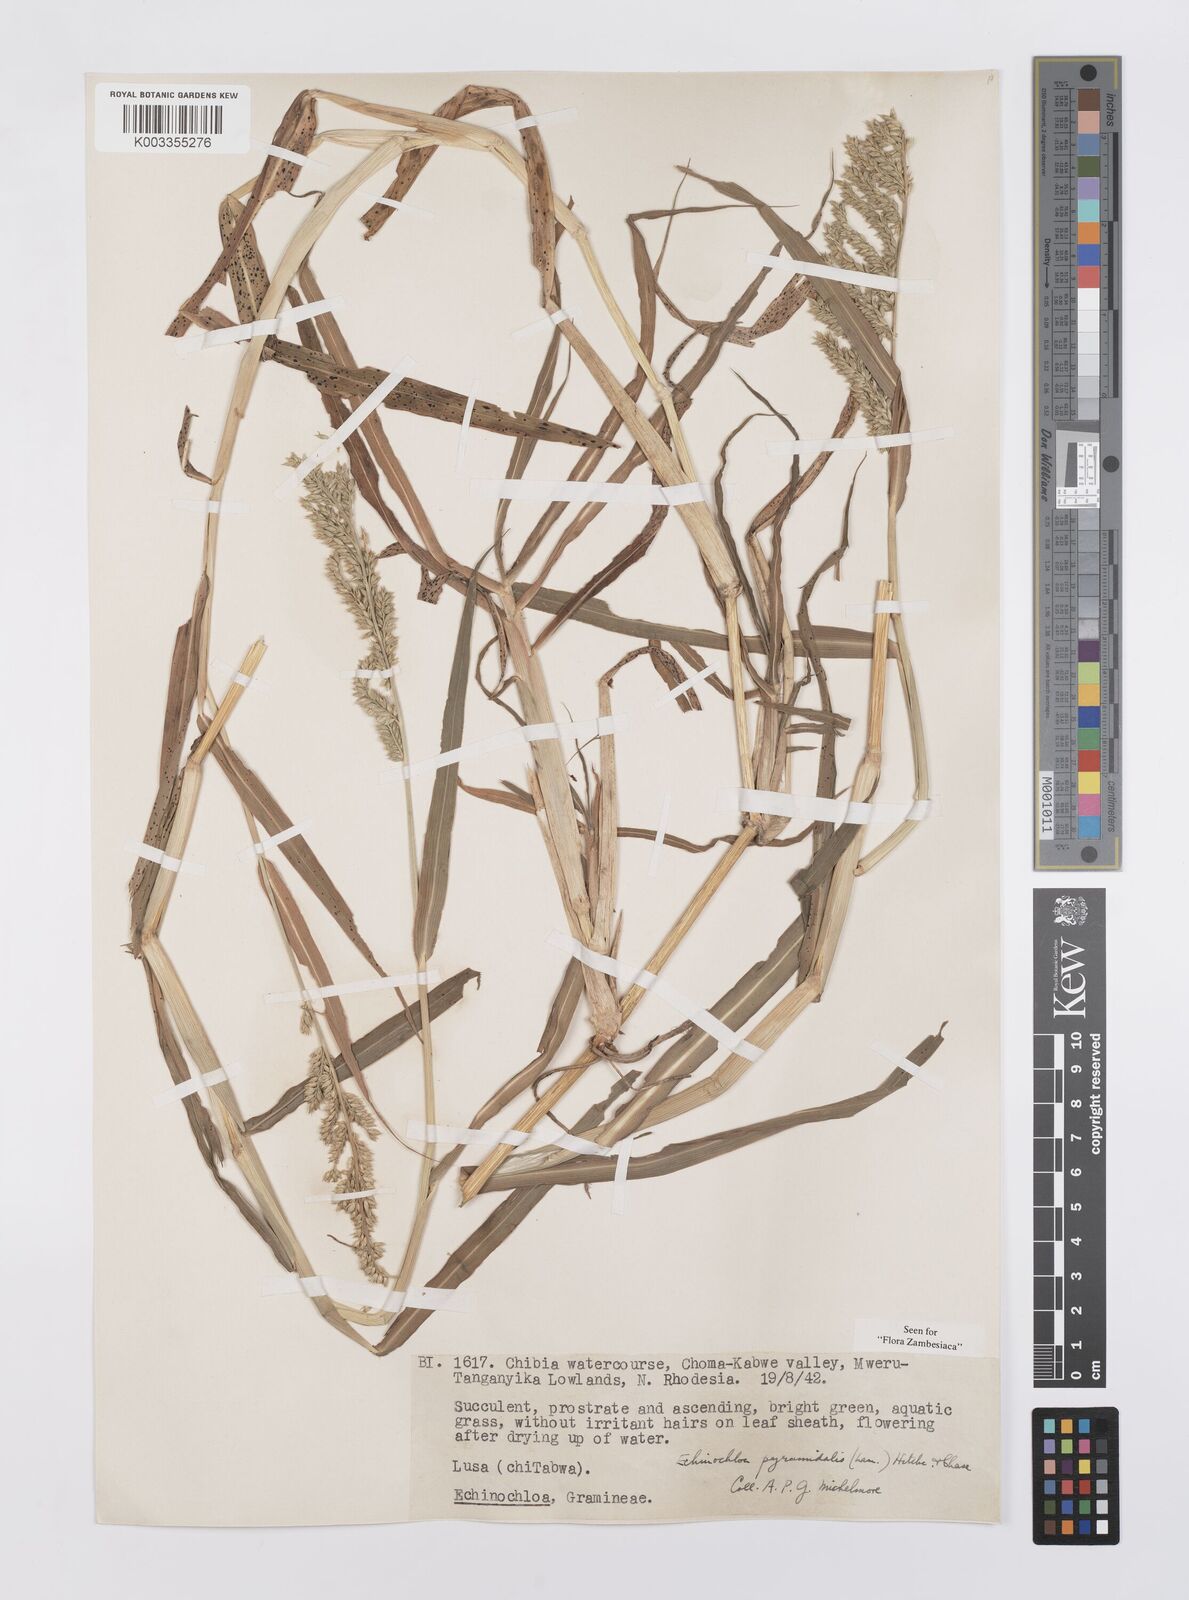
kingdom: Plantae
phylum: Tracheophyta
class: Liliopsida
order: Poales
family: Poaceae
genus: Echinochloa
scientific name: Echinochloa pyramidalis
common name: Antelope grass
